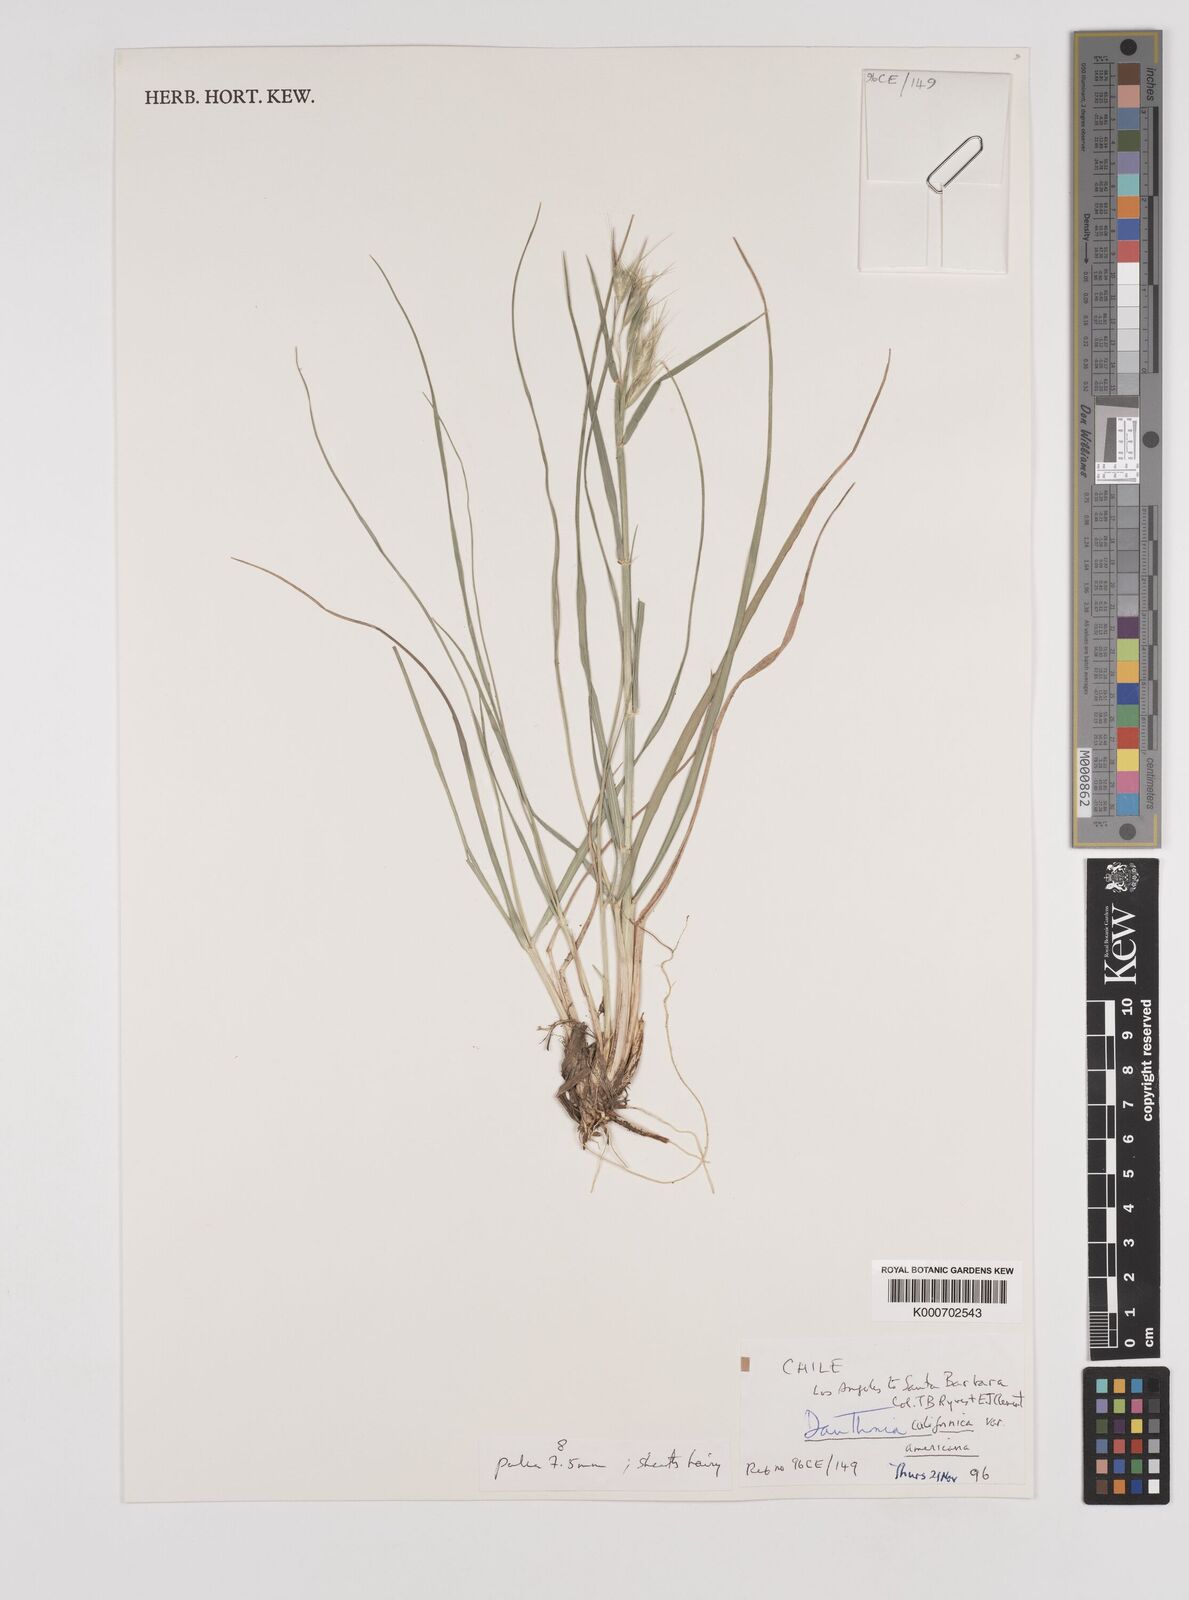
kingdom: Plantae
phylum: Tracheophyta
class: Liliopsida
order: Poales
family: Poaceae
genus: Danthonia
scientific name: Danthonia californica
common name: California oat grass
